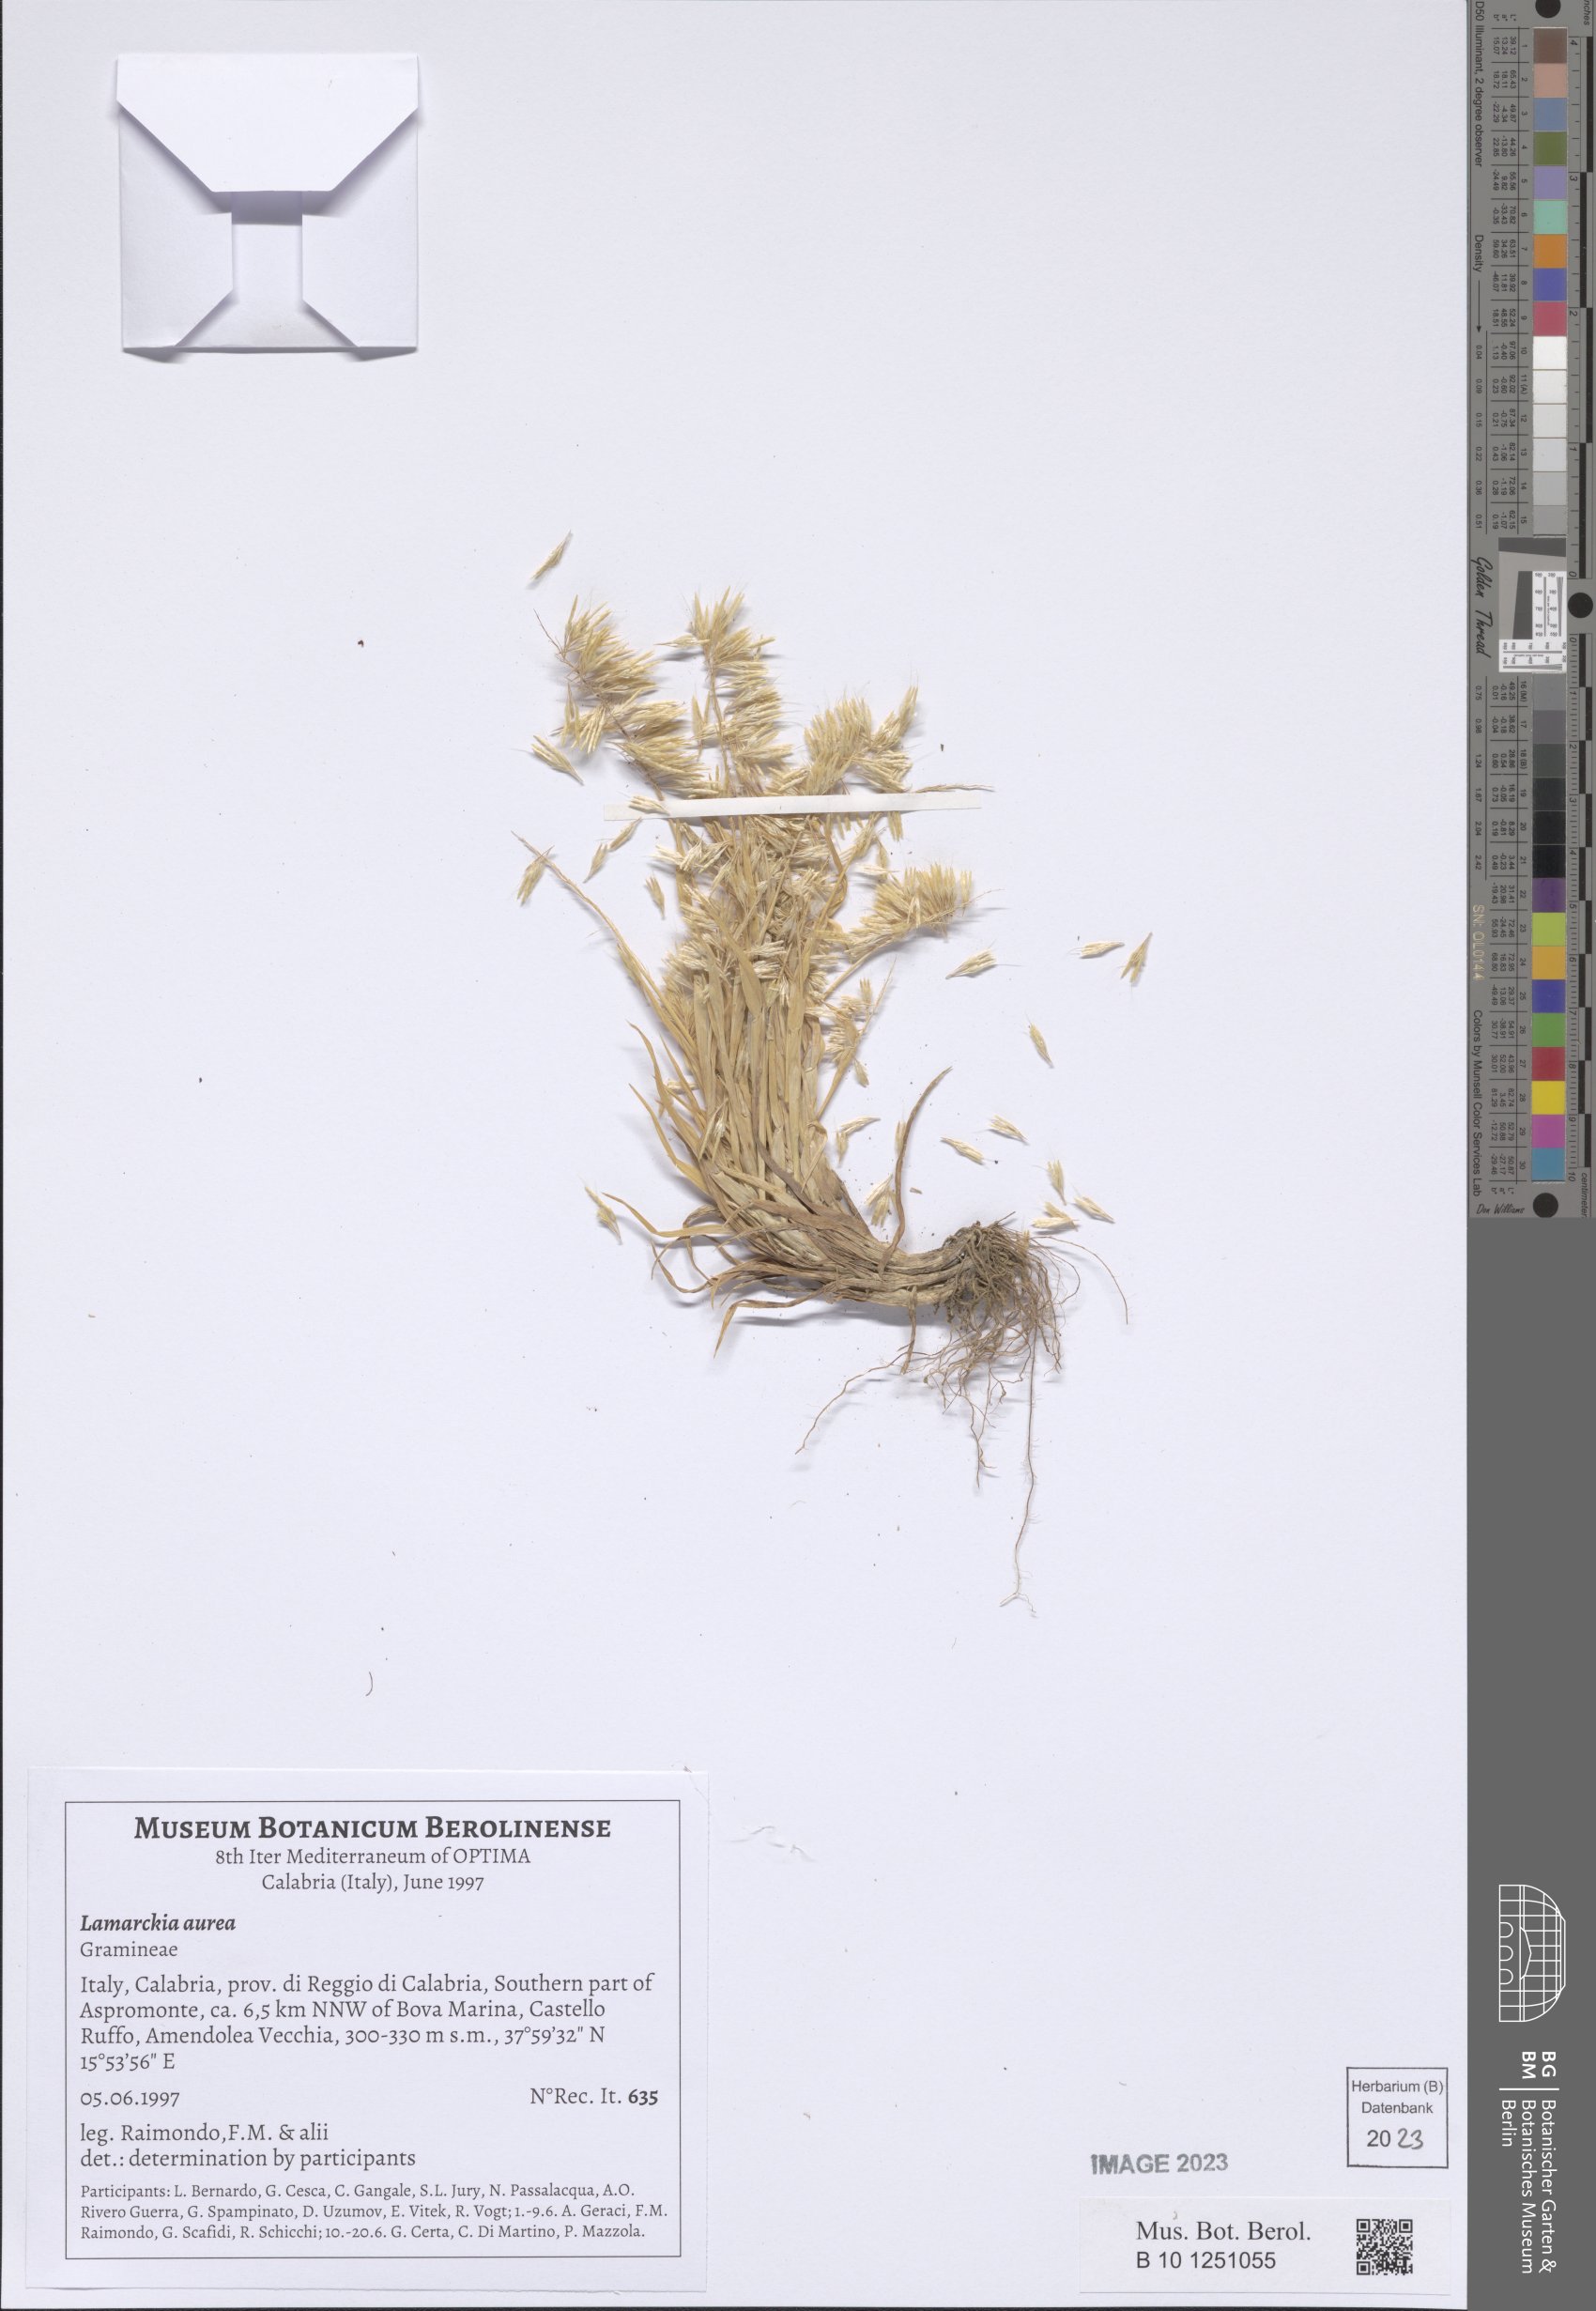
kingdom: Plantae
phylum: Tracheophyta
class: Liliopsida
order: Poales
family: Poaceae
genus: Lamarckia
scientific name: Lamarckia aurea
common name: Golden dog's-tail
